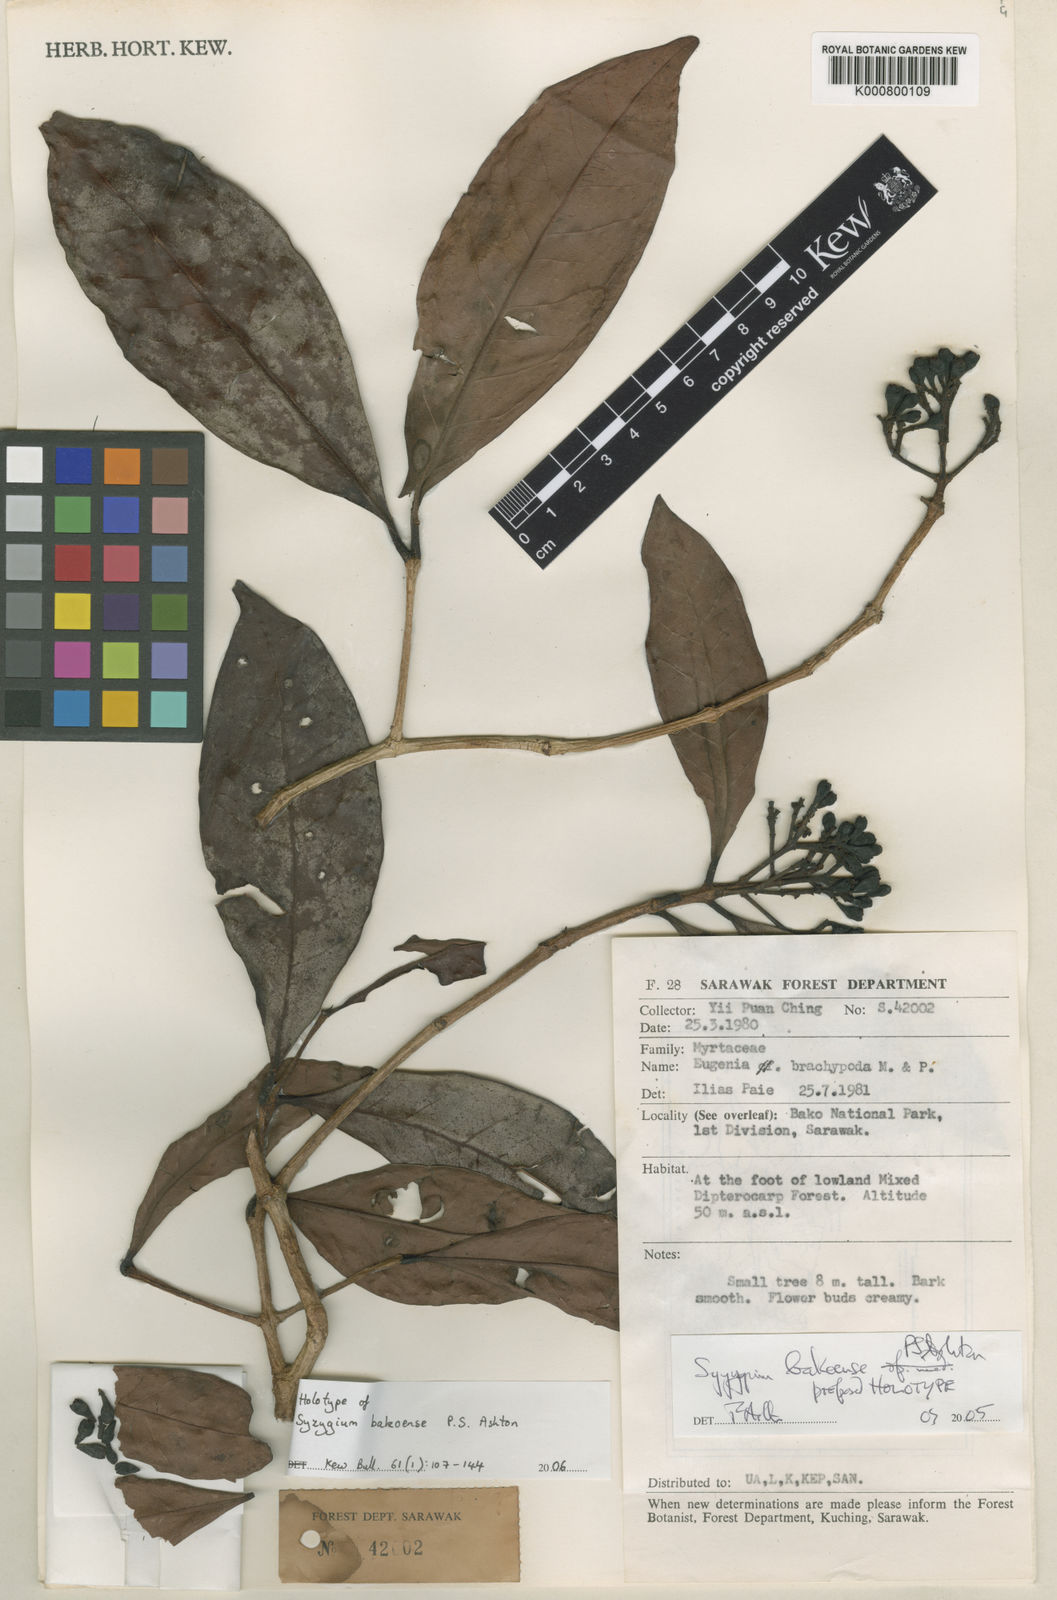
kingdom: Plantae
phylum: Tracheophyta
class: Magnoliopsida
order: Myrtales
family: Myrtaceae
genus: Syzygium
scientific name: Syzygium bakoense
